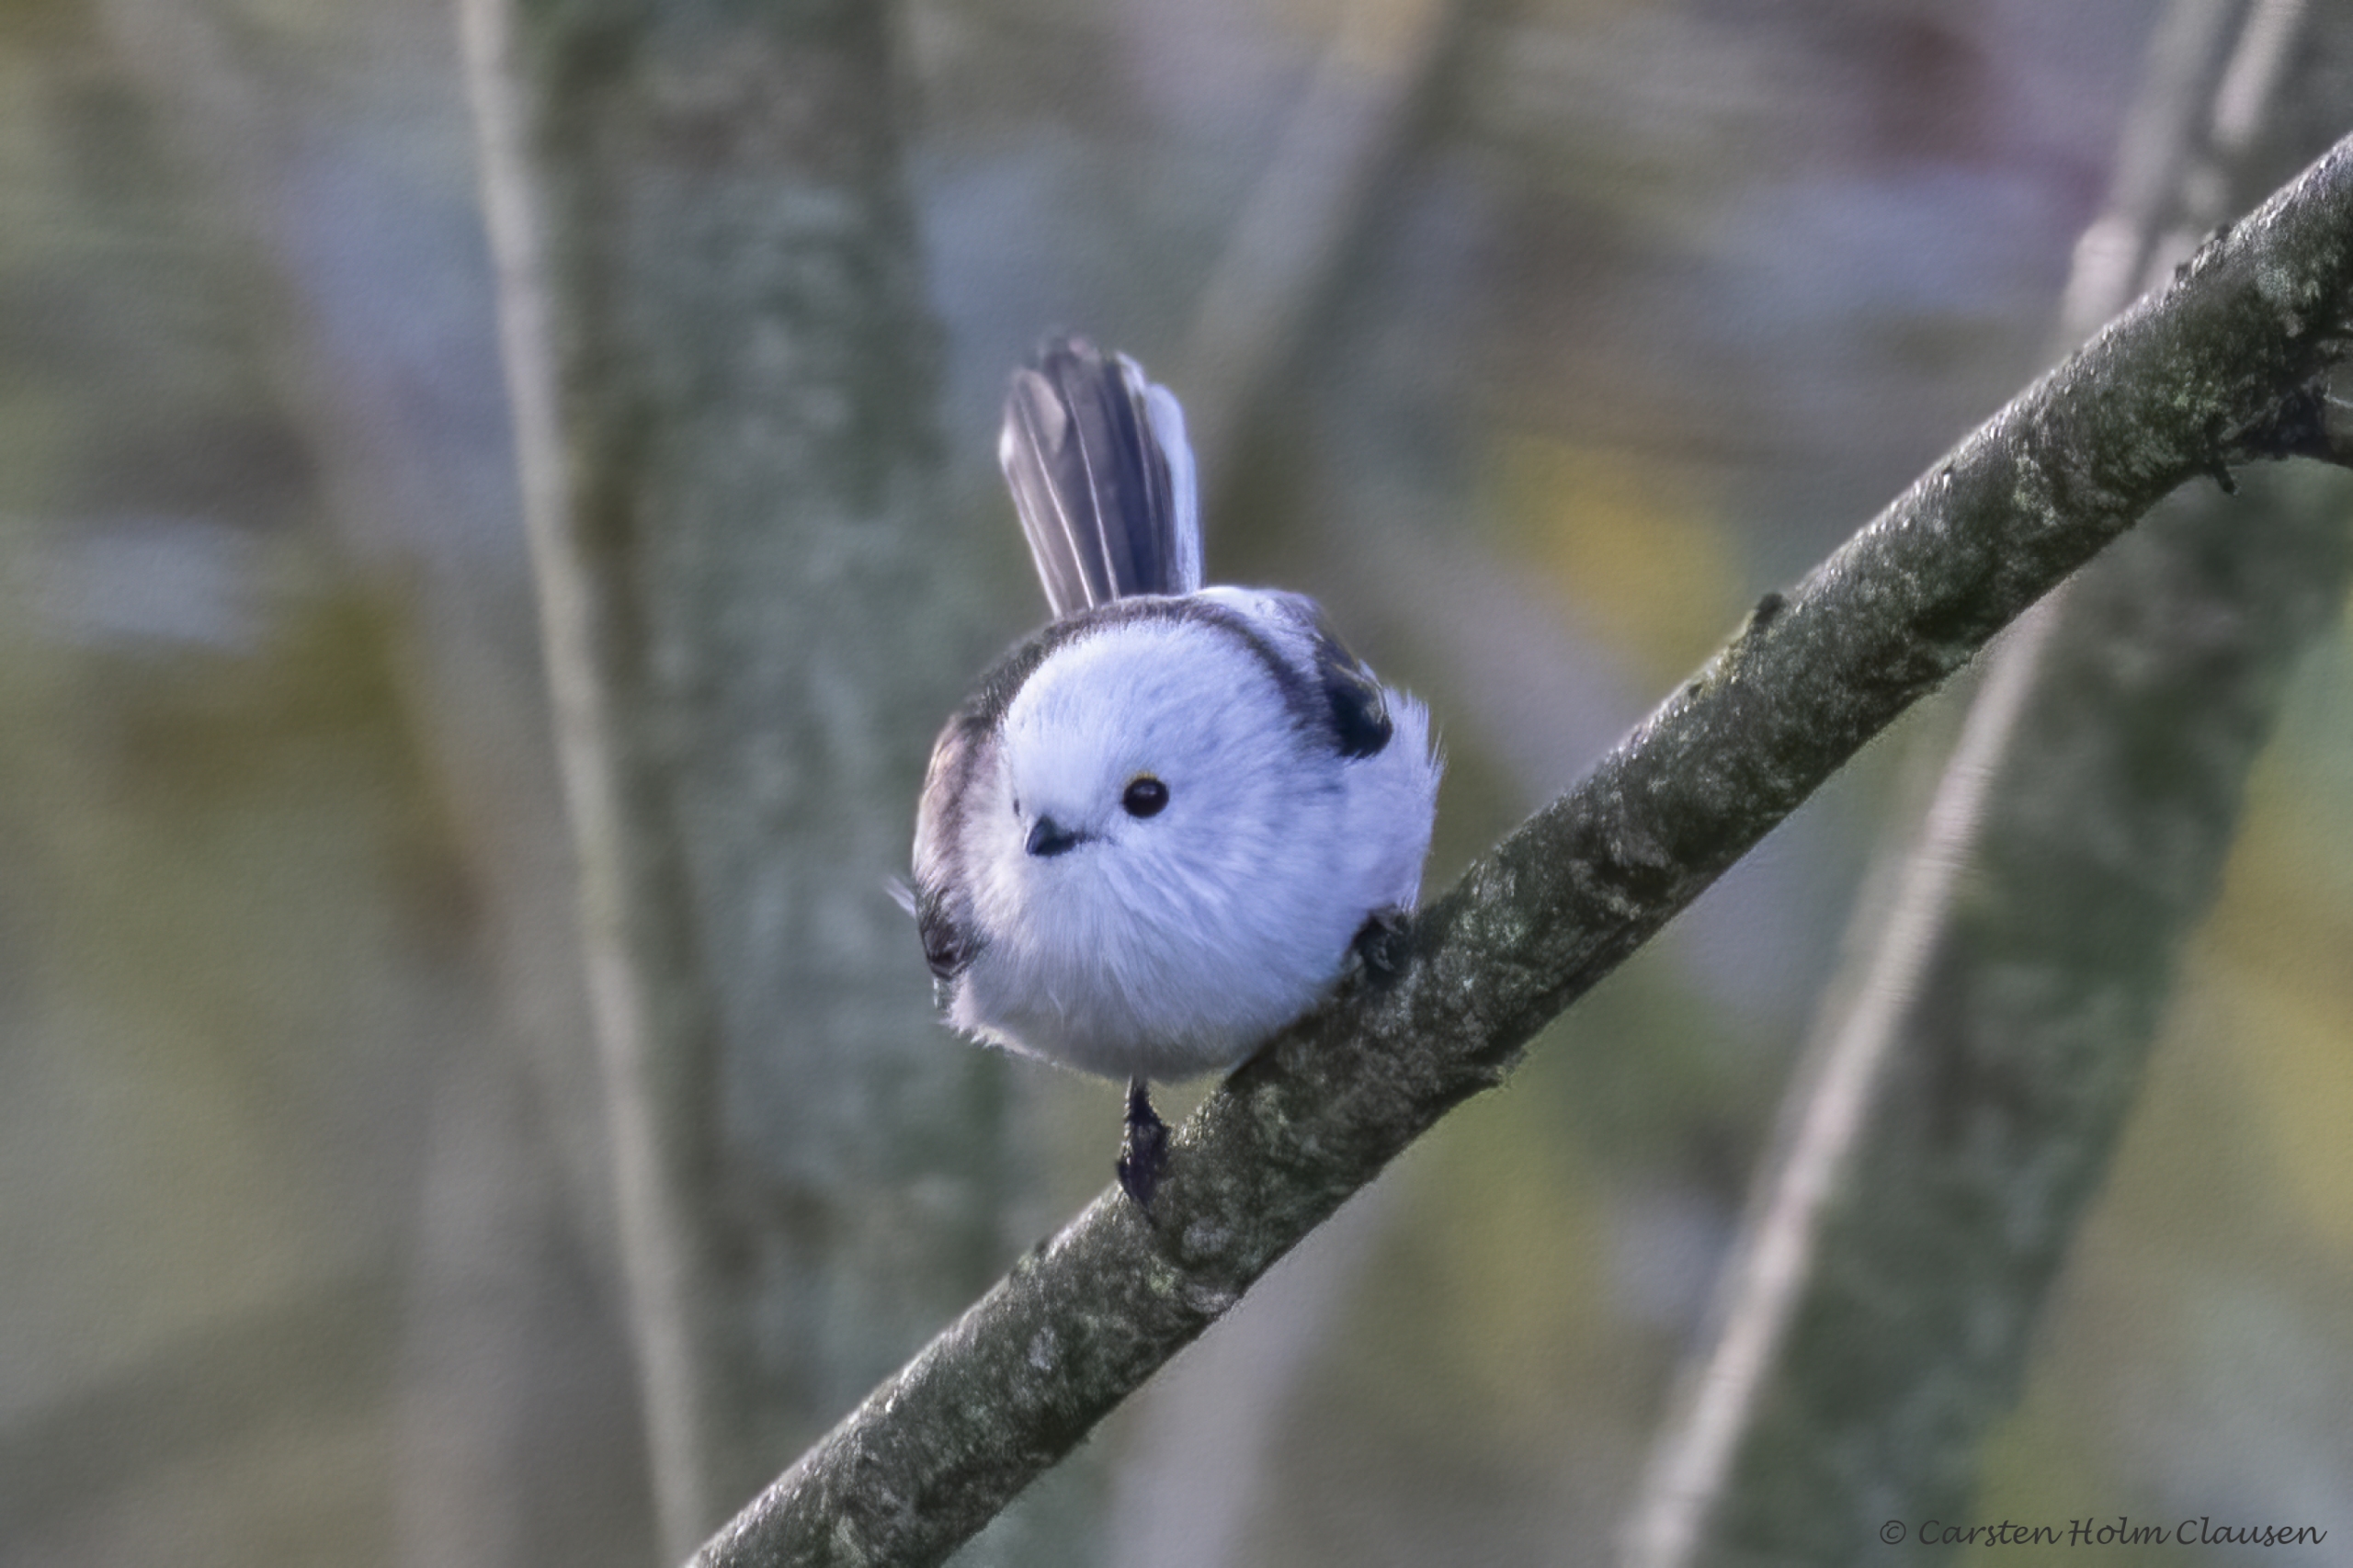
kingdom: Animalia
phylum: Chordata
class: Aves
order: Passeriformes
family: Aegithalidae
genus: Aegithalos
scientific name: Aegithalos caudatus
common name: Nordlig halemejse
